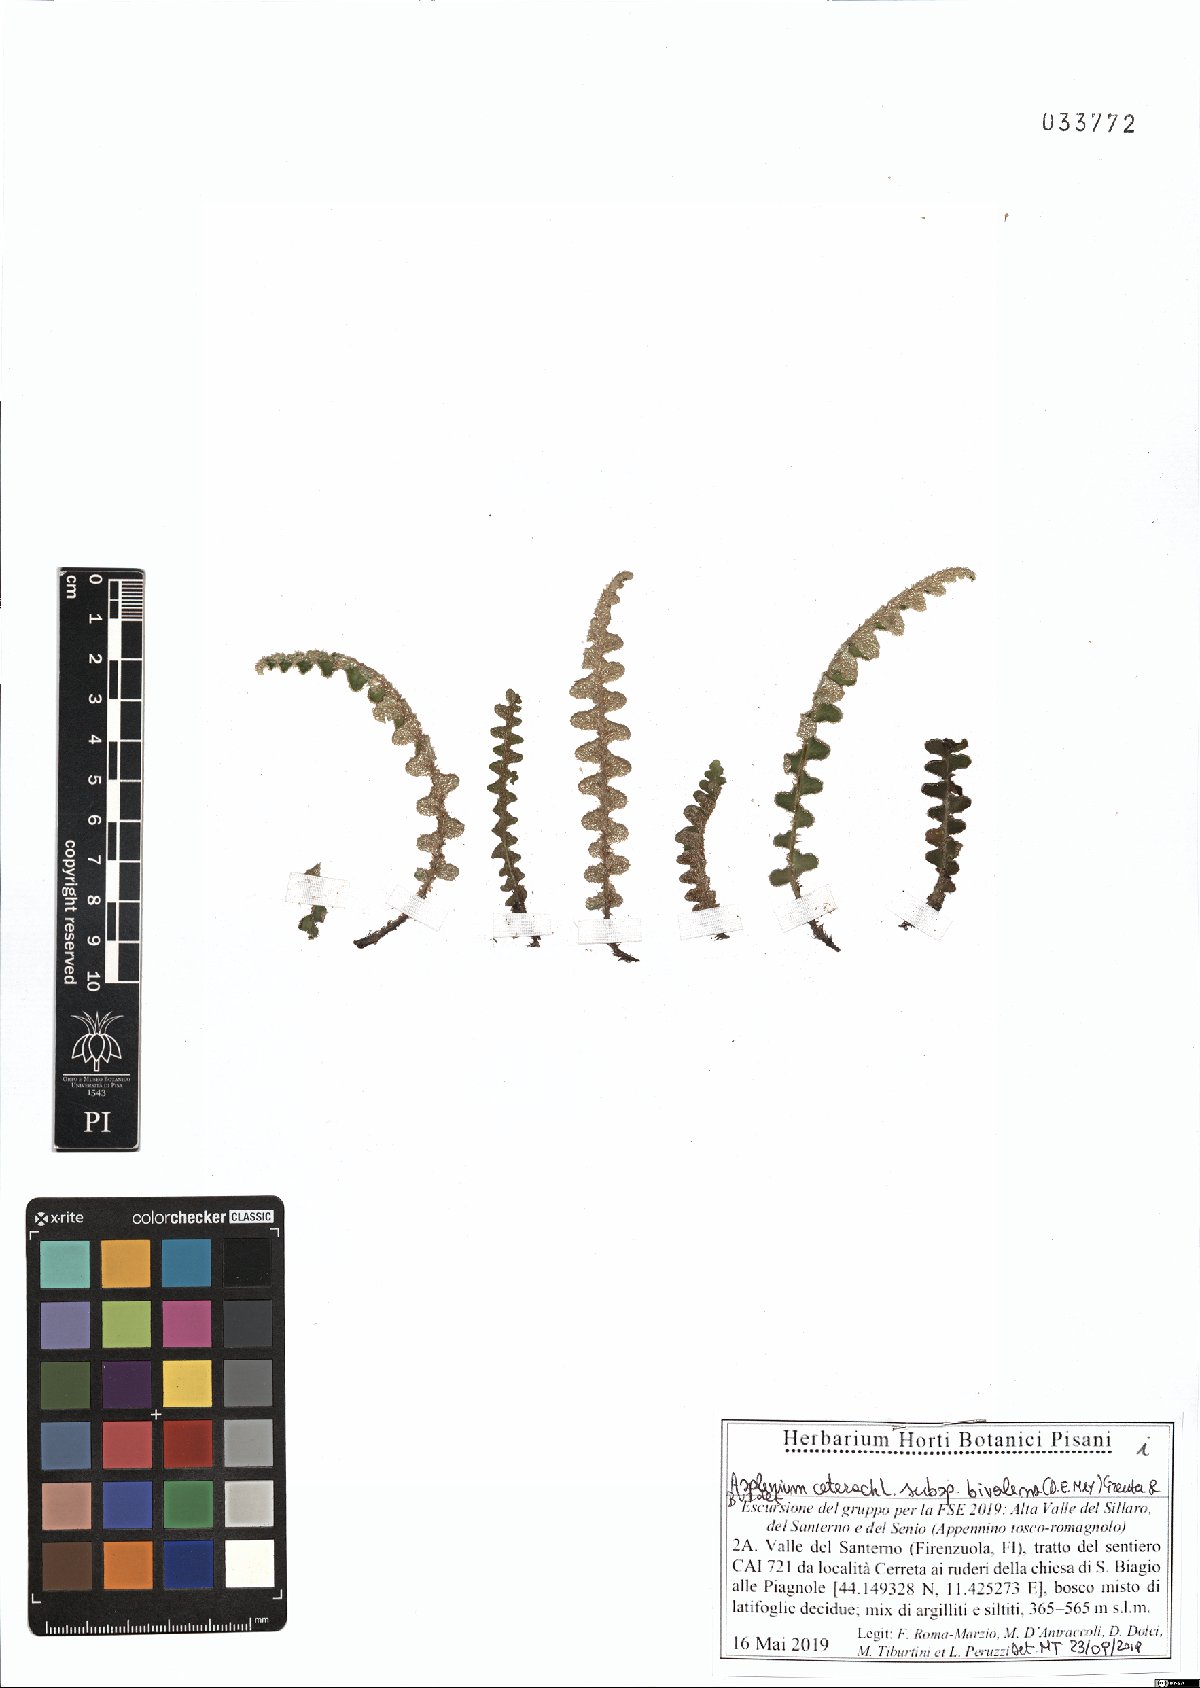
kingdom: Plantae
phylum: Tracheophyta
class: Polypodiopsida
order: Polypodiales
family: Aspleniaceae
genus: Asplenium
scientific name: Asplenium ceterach
